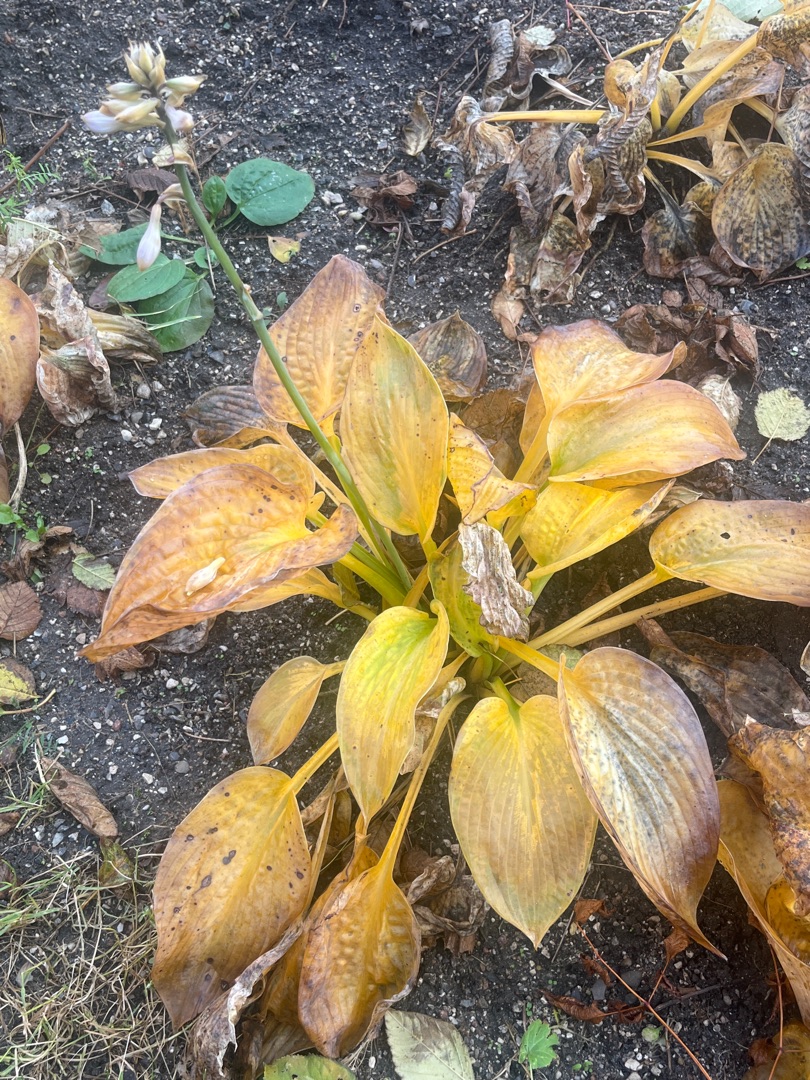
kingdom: Plantae
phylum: Tracheophyta
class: Liliopsida
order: Asparagales
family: Asparagaceae
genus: Hosta
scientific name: Hosta
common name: Hostaslægten
